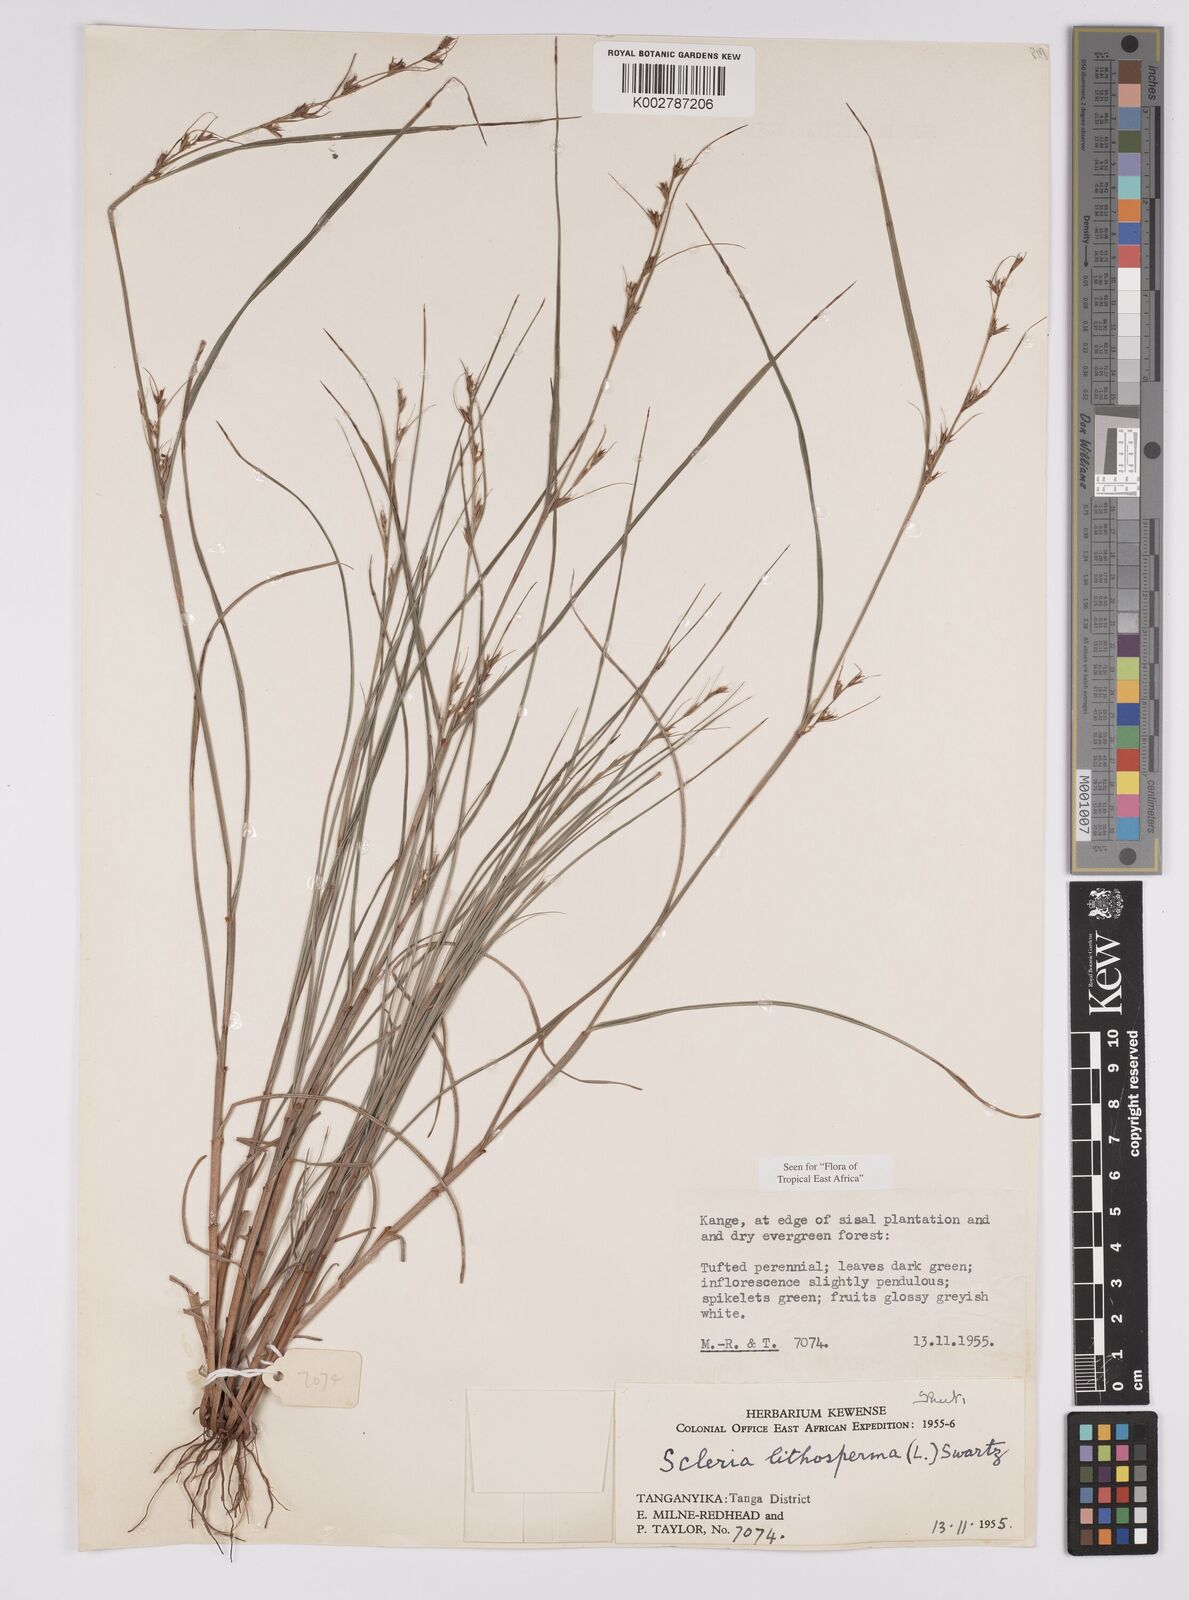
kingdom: Plantae
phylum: Tracheophyta
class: Liliopsida
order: Poales
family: Cyperaceae
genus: Scleria
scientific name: Scleria lithosperma
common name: Florida keys nut-rush
